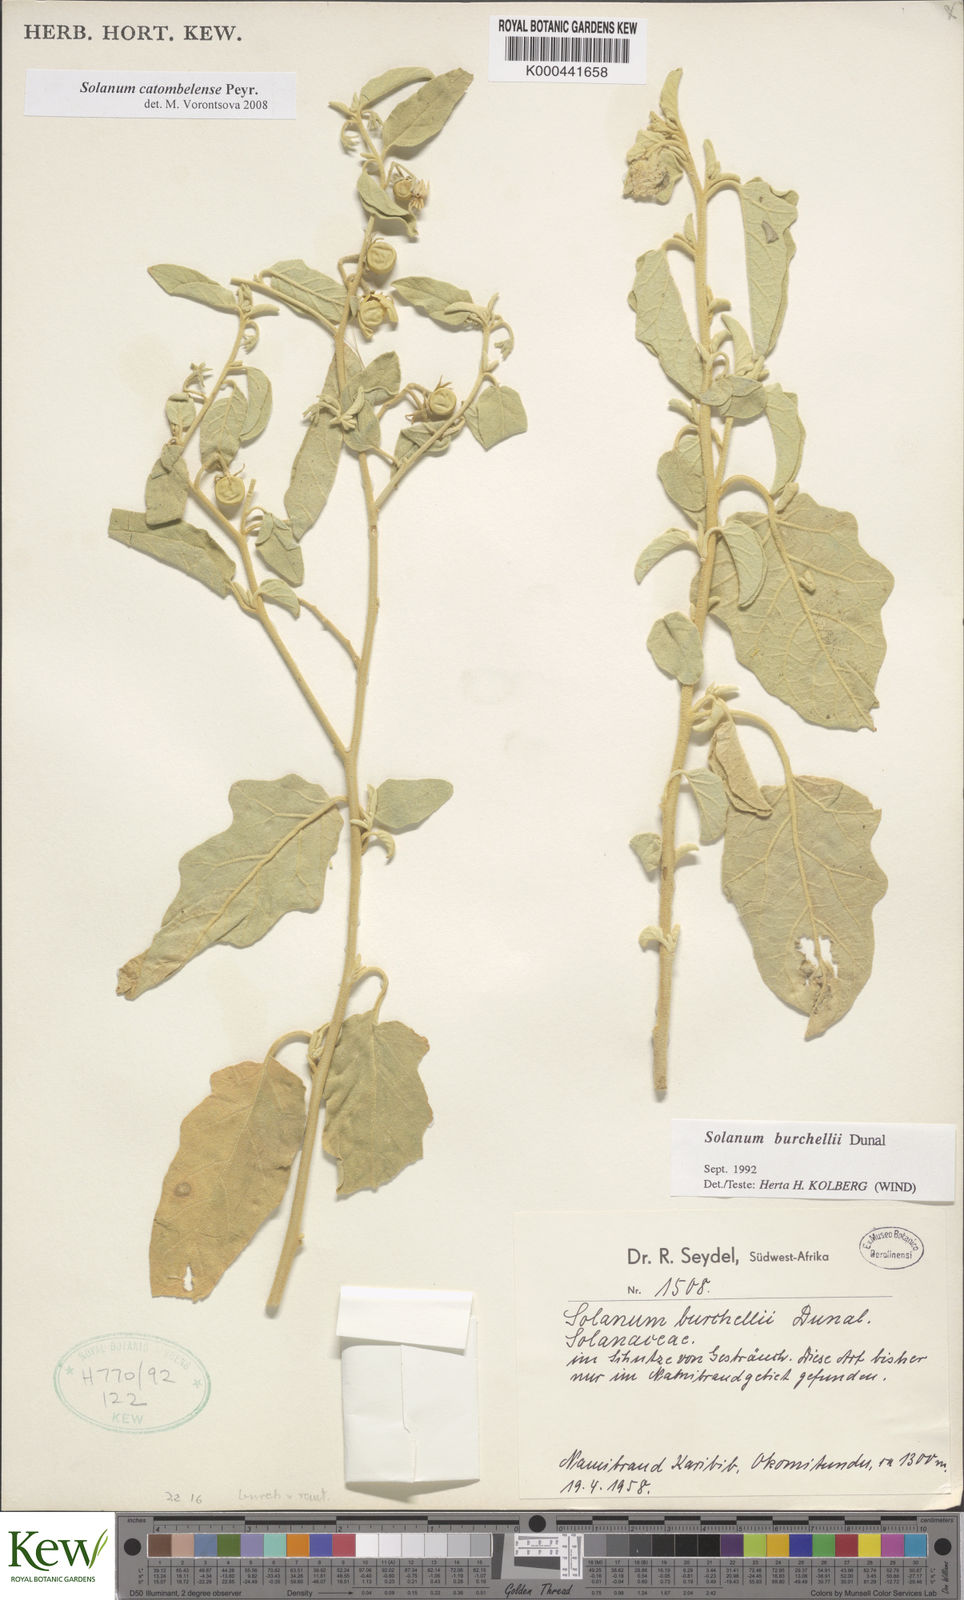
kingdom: Plantae
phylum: Tracheophyta
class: Magnoliopsida
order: Solanales
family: Solanaceae
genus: Solanum
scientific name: Solanum catombelense
